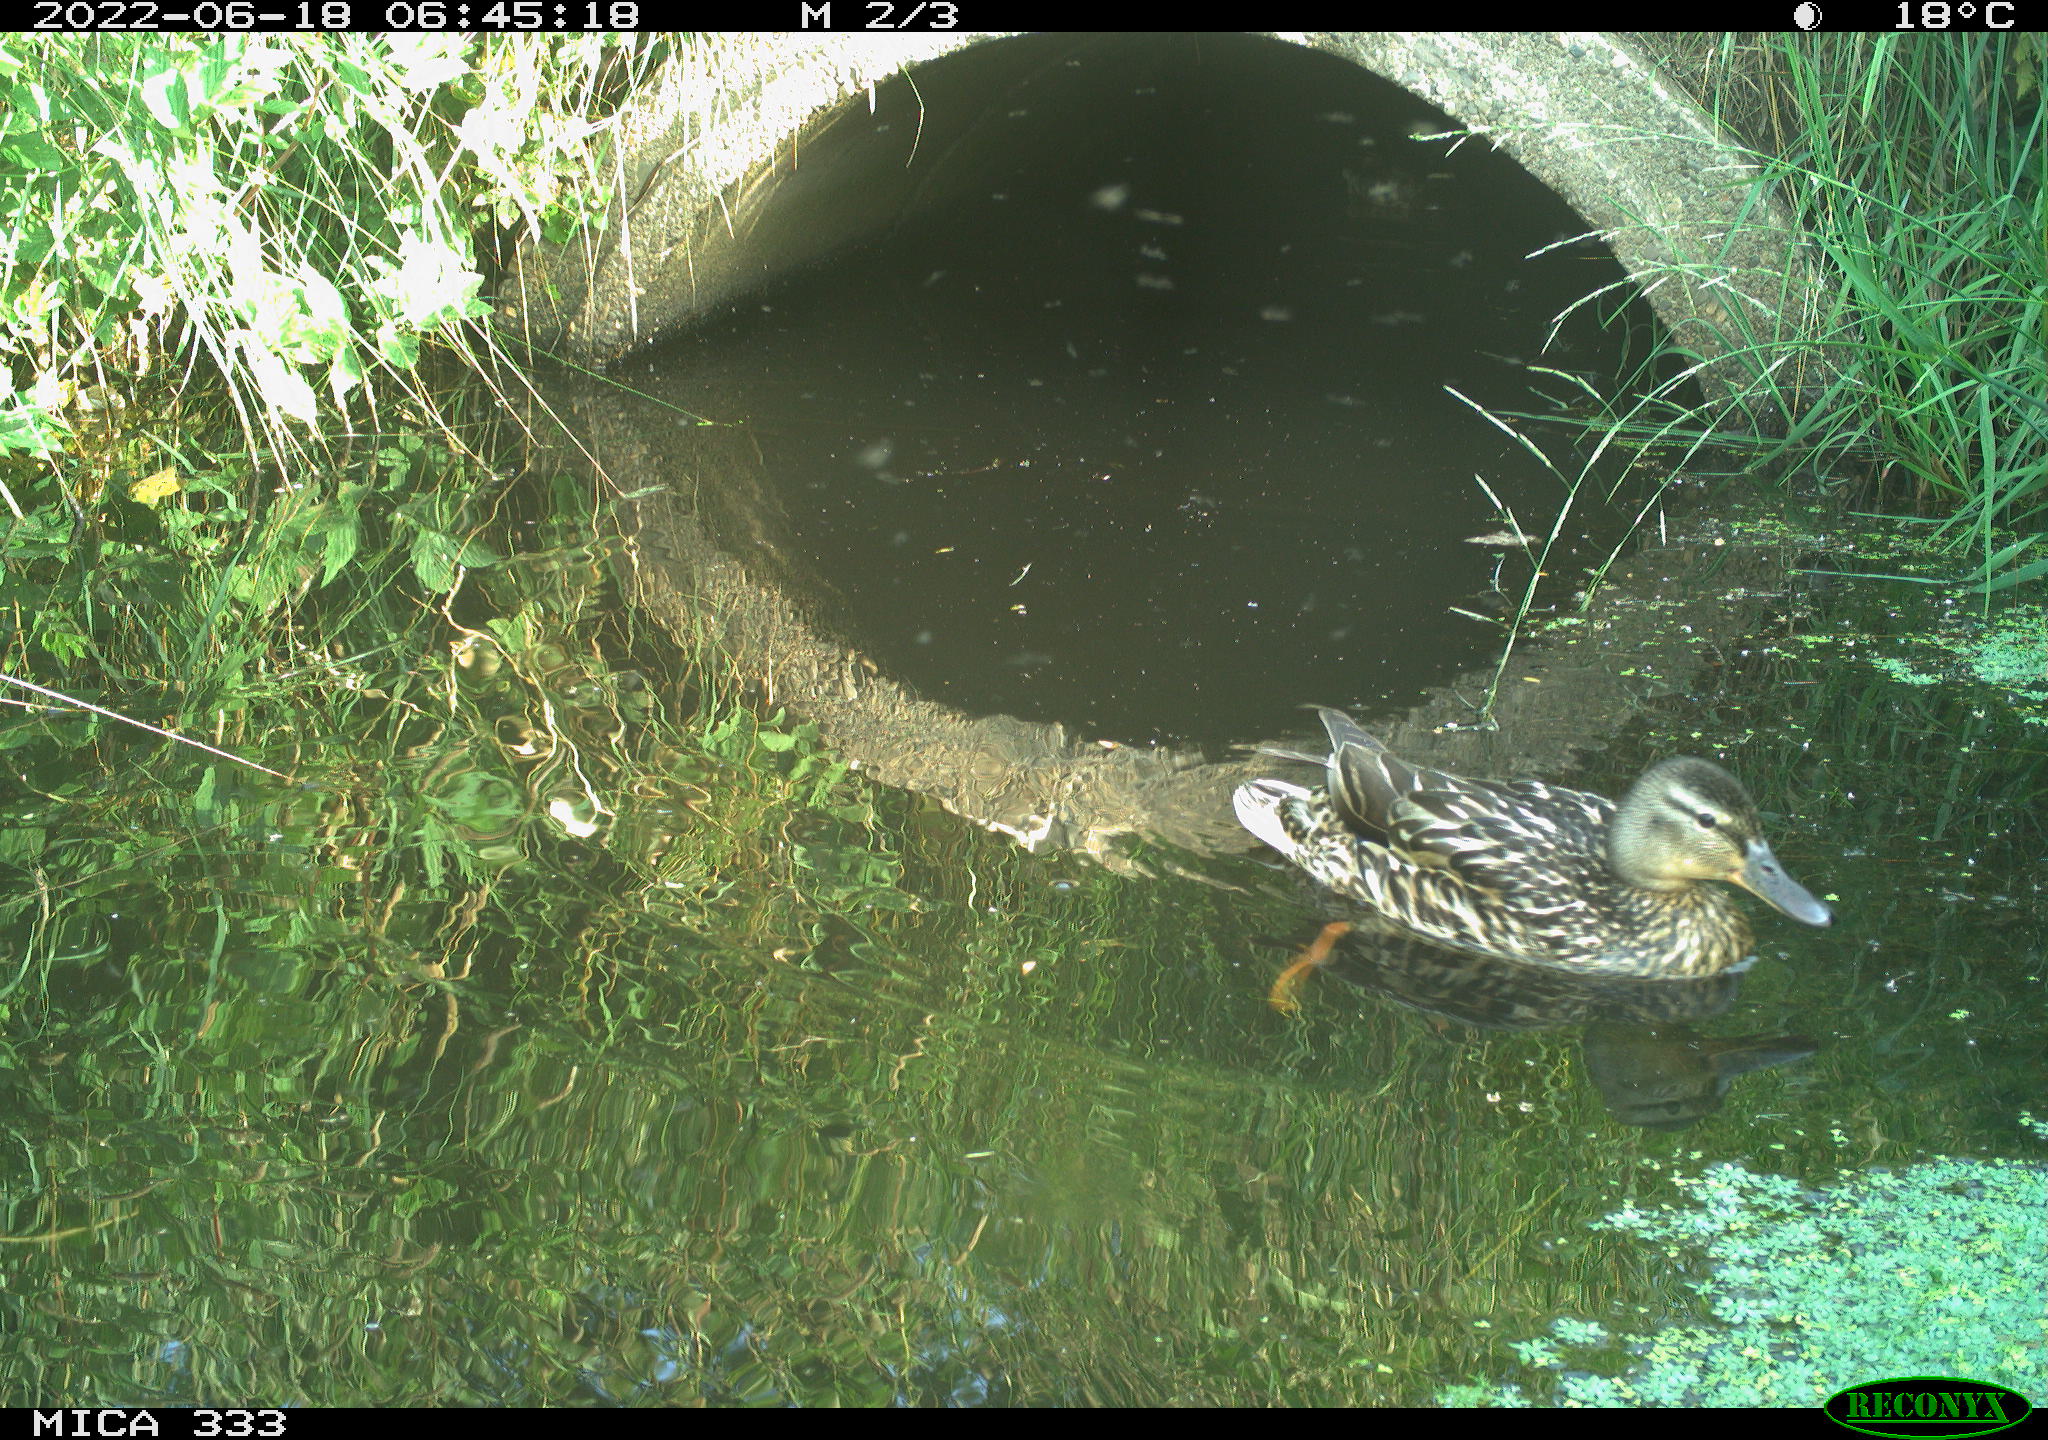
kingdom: Animalia
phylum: Chordata
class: Aves
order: Anseriformes
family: Anatidae
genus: Anas
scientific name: Anas platyrhynchos
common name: Mallard
